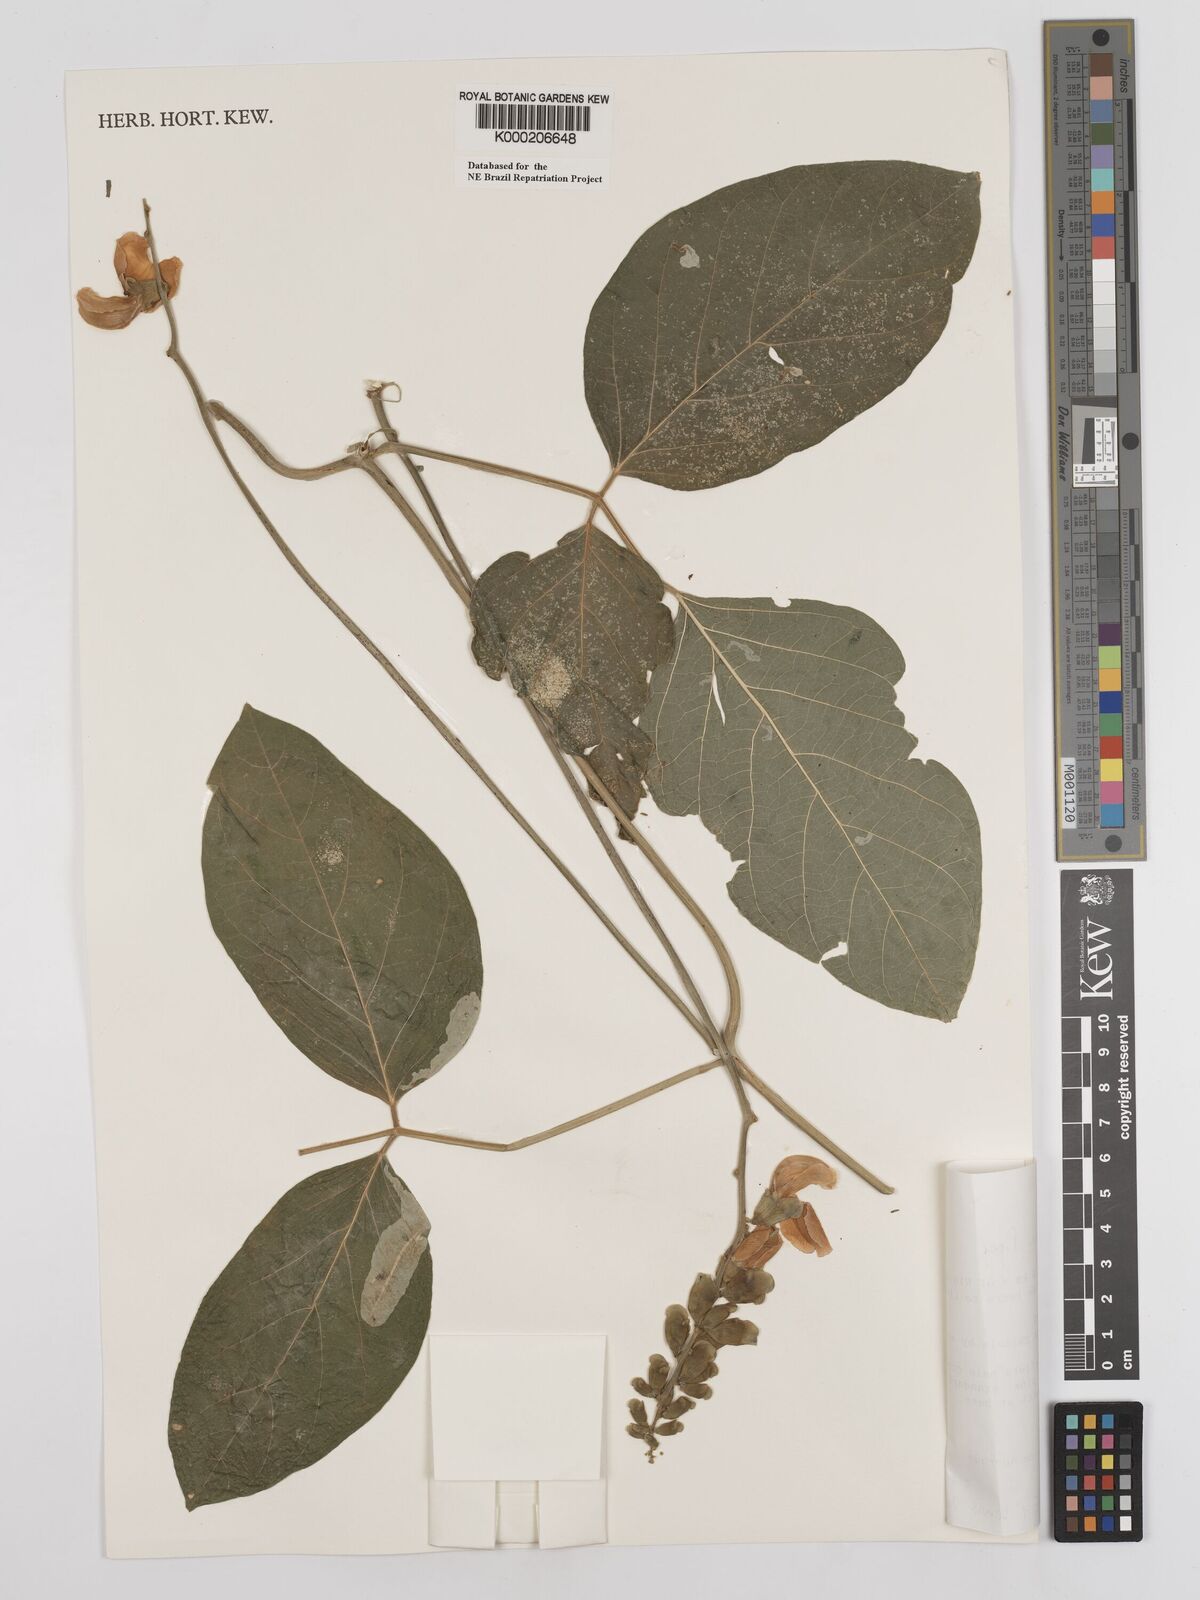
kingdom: Plantae
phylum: Tracheophyta
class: Magnoliopsida
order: Fabales
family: Fabaceae
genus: Canavalia
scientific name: Canavalia brasiliensis
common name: Barbicou-bean
